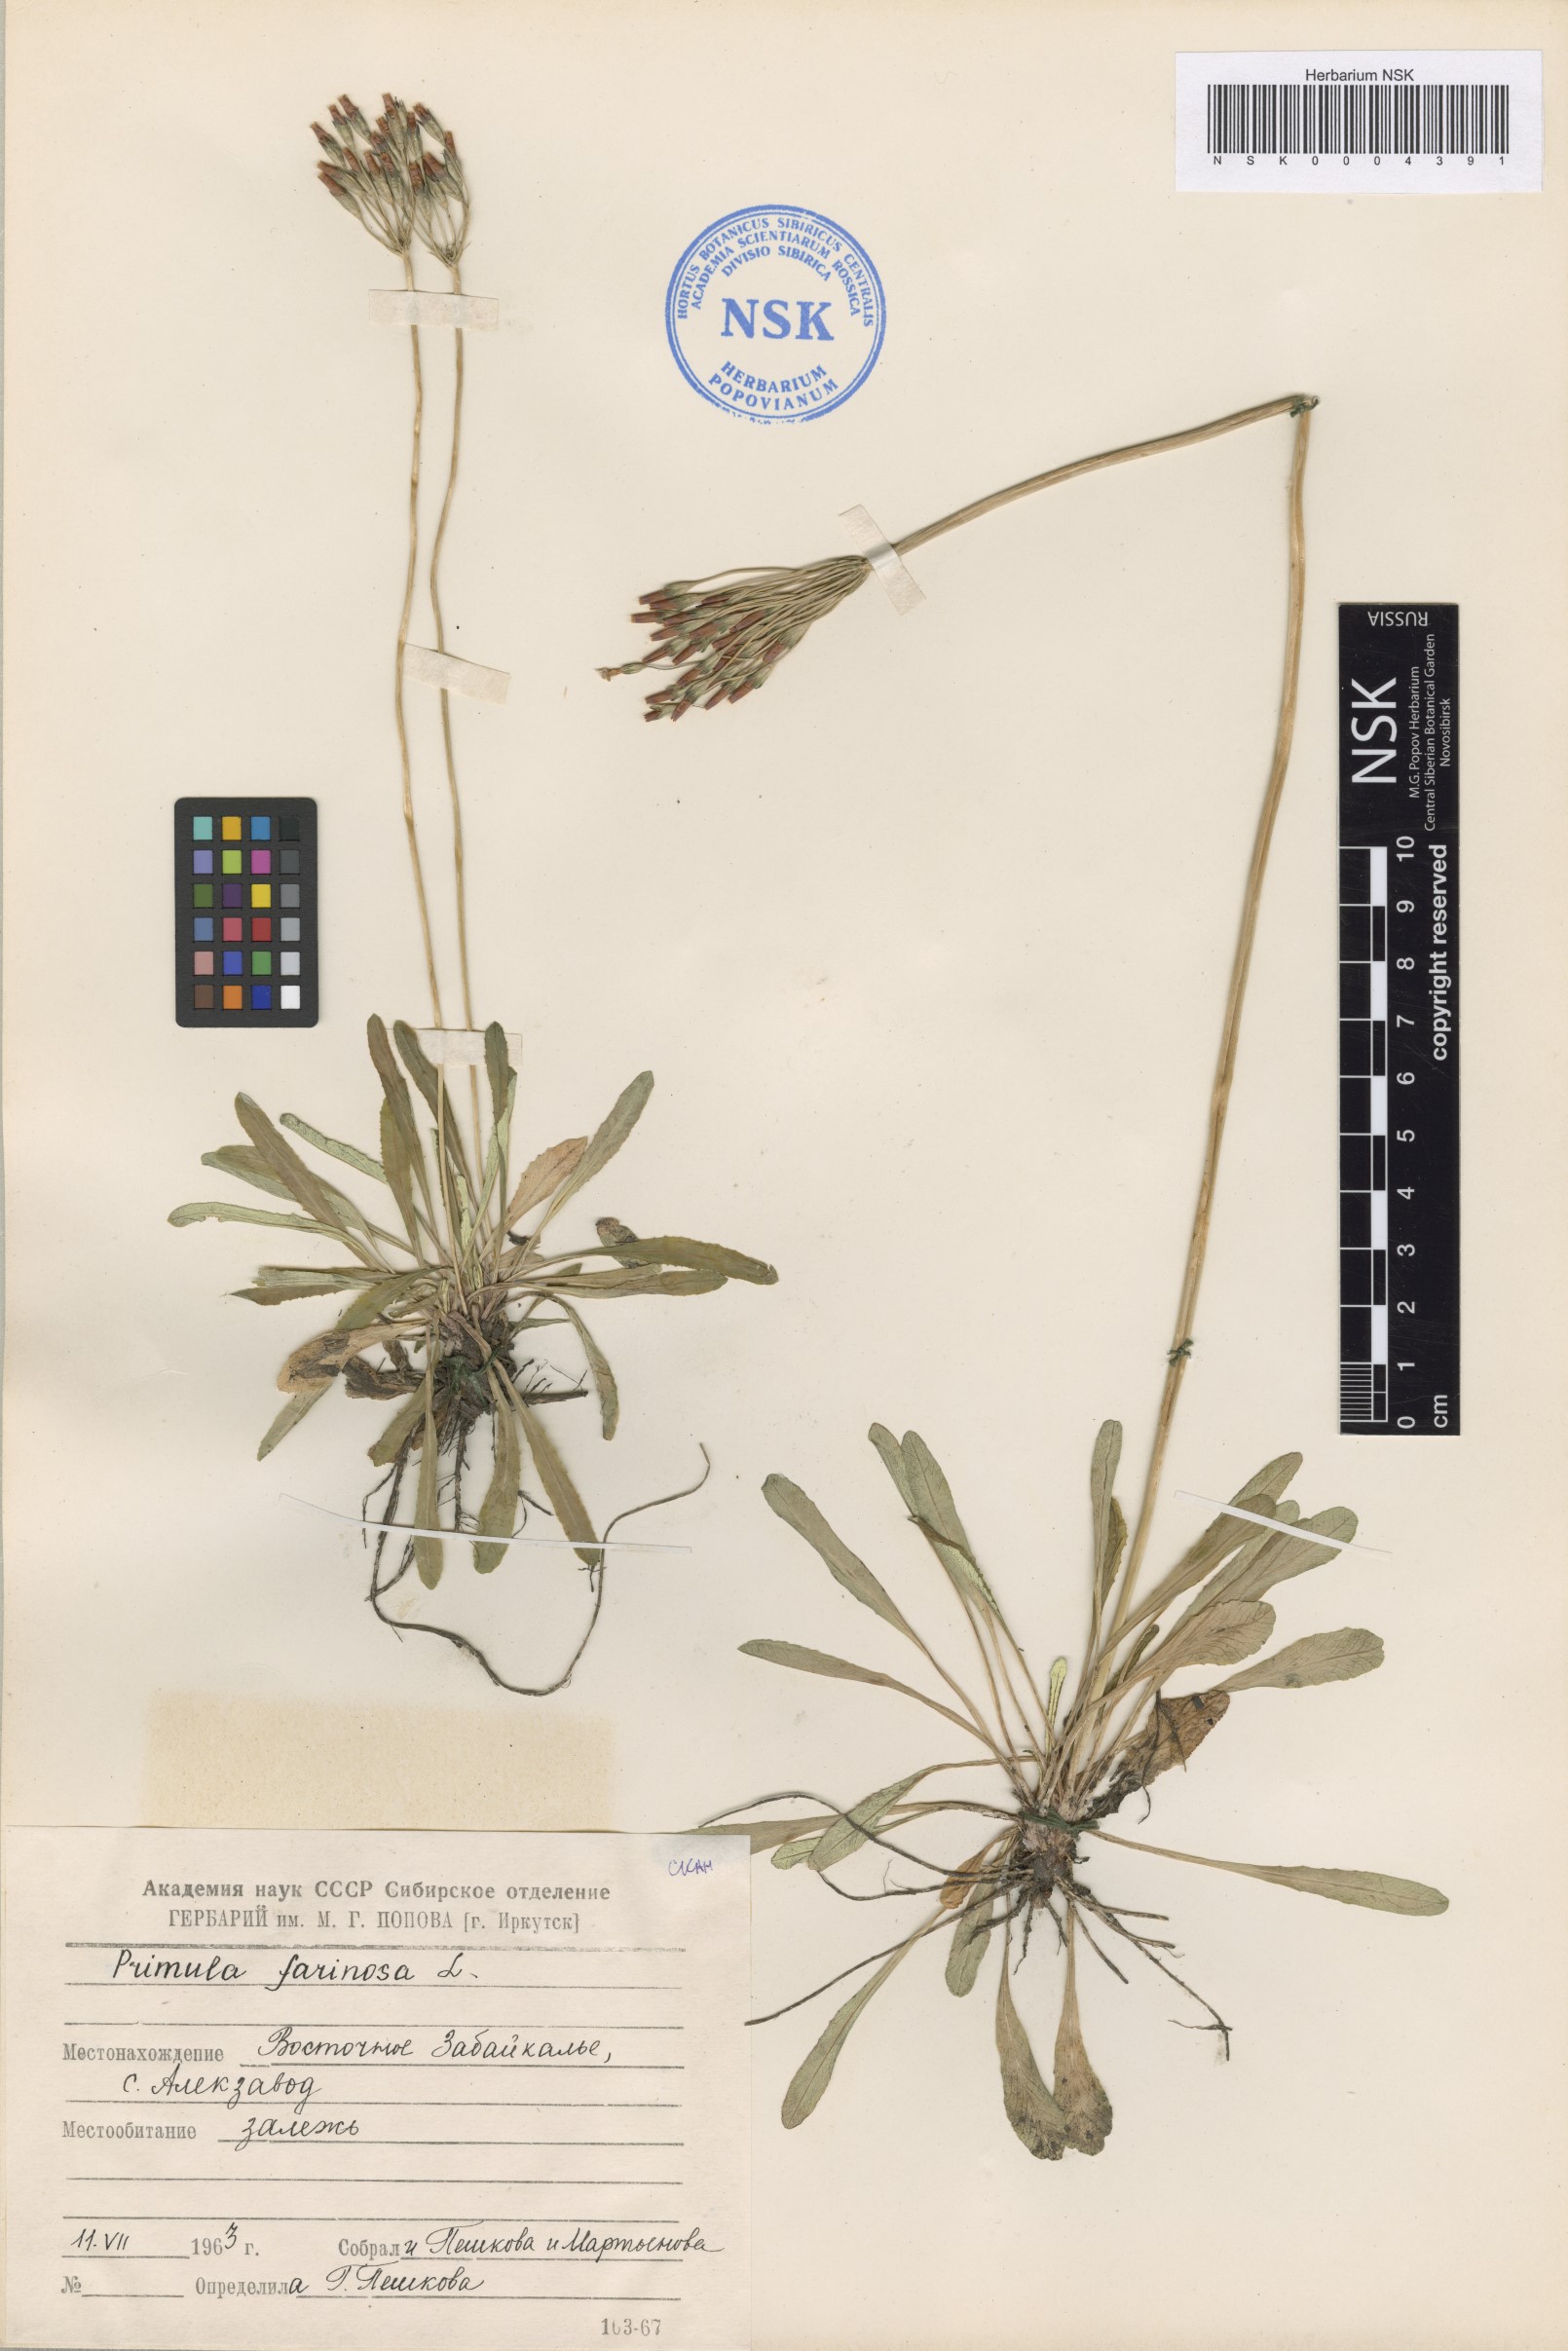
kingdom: Plantae
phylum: Tracheophyta
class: Magnoliopsida
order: Ericales
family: Primulaceae
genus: Primula
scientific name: Primula farinosa
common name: Bird's-eye primrose
